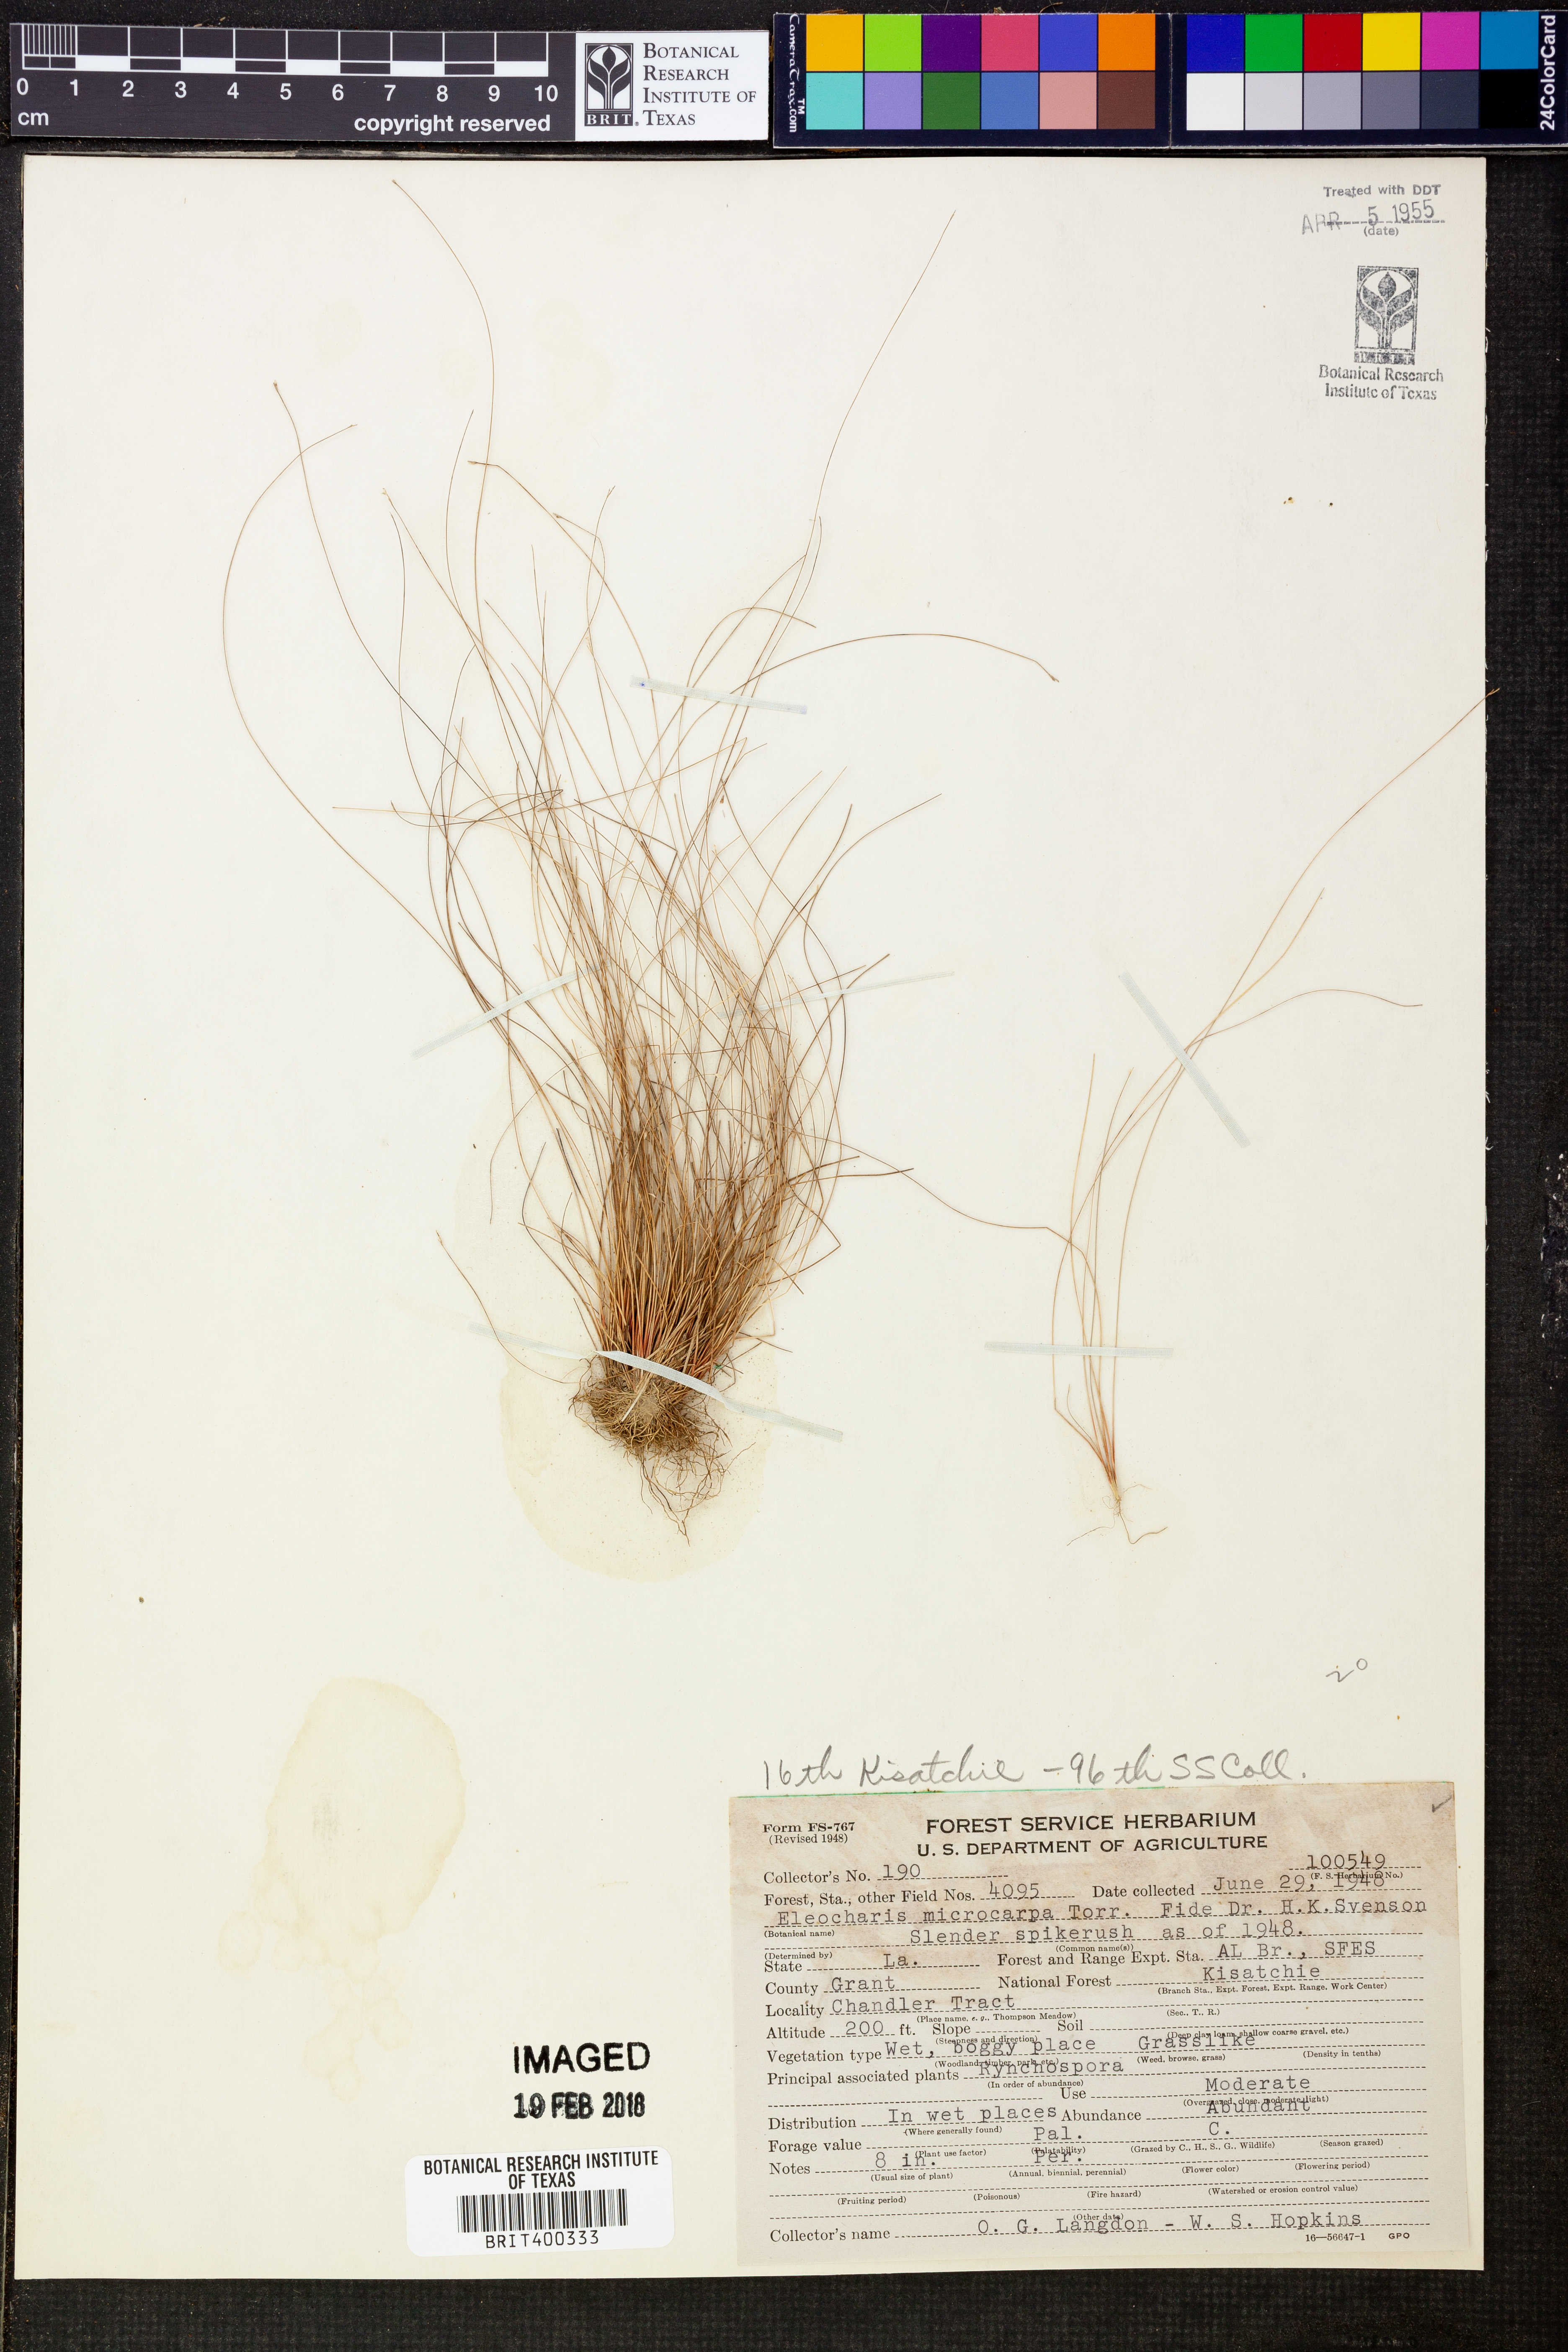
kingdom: Plantae
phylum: Tracheophyta
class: Liliopsida
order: Poales
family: Cyperaceae
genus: Eleocharis
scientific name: Eleocharis microcarpa
